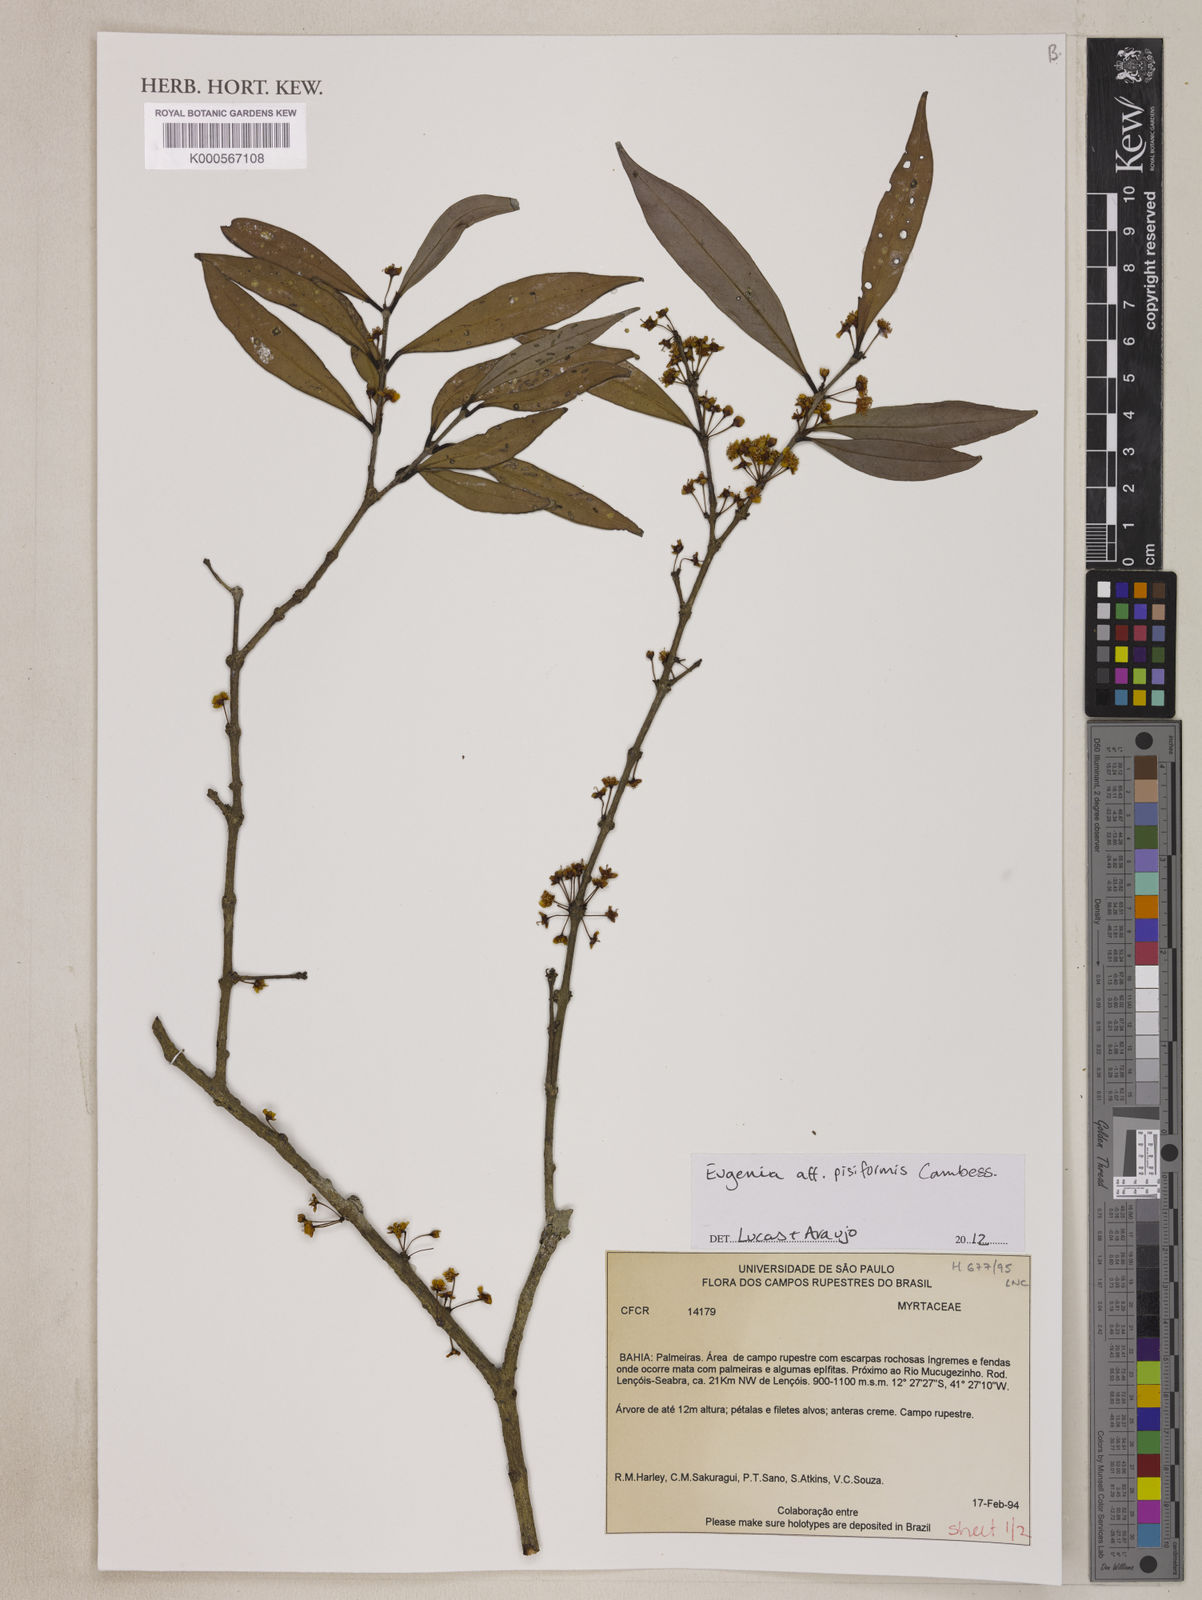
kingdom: Plantae
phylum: Tracheophyta
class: Magnoliopsida
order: Myrtales
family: Myrtaceae
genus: Eugenia
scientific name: Eugenia pisiformis
